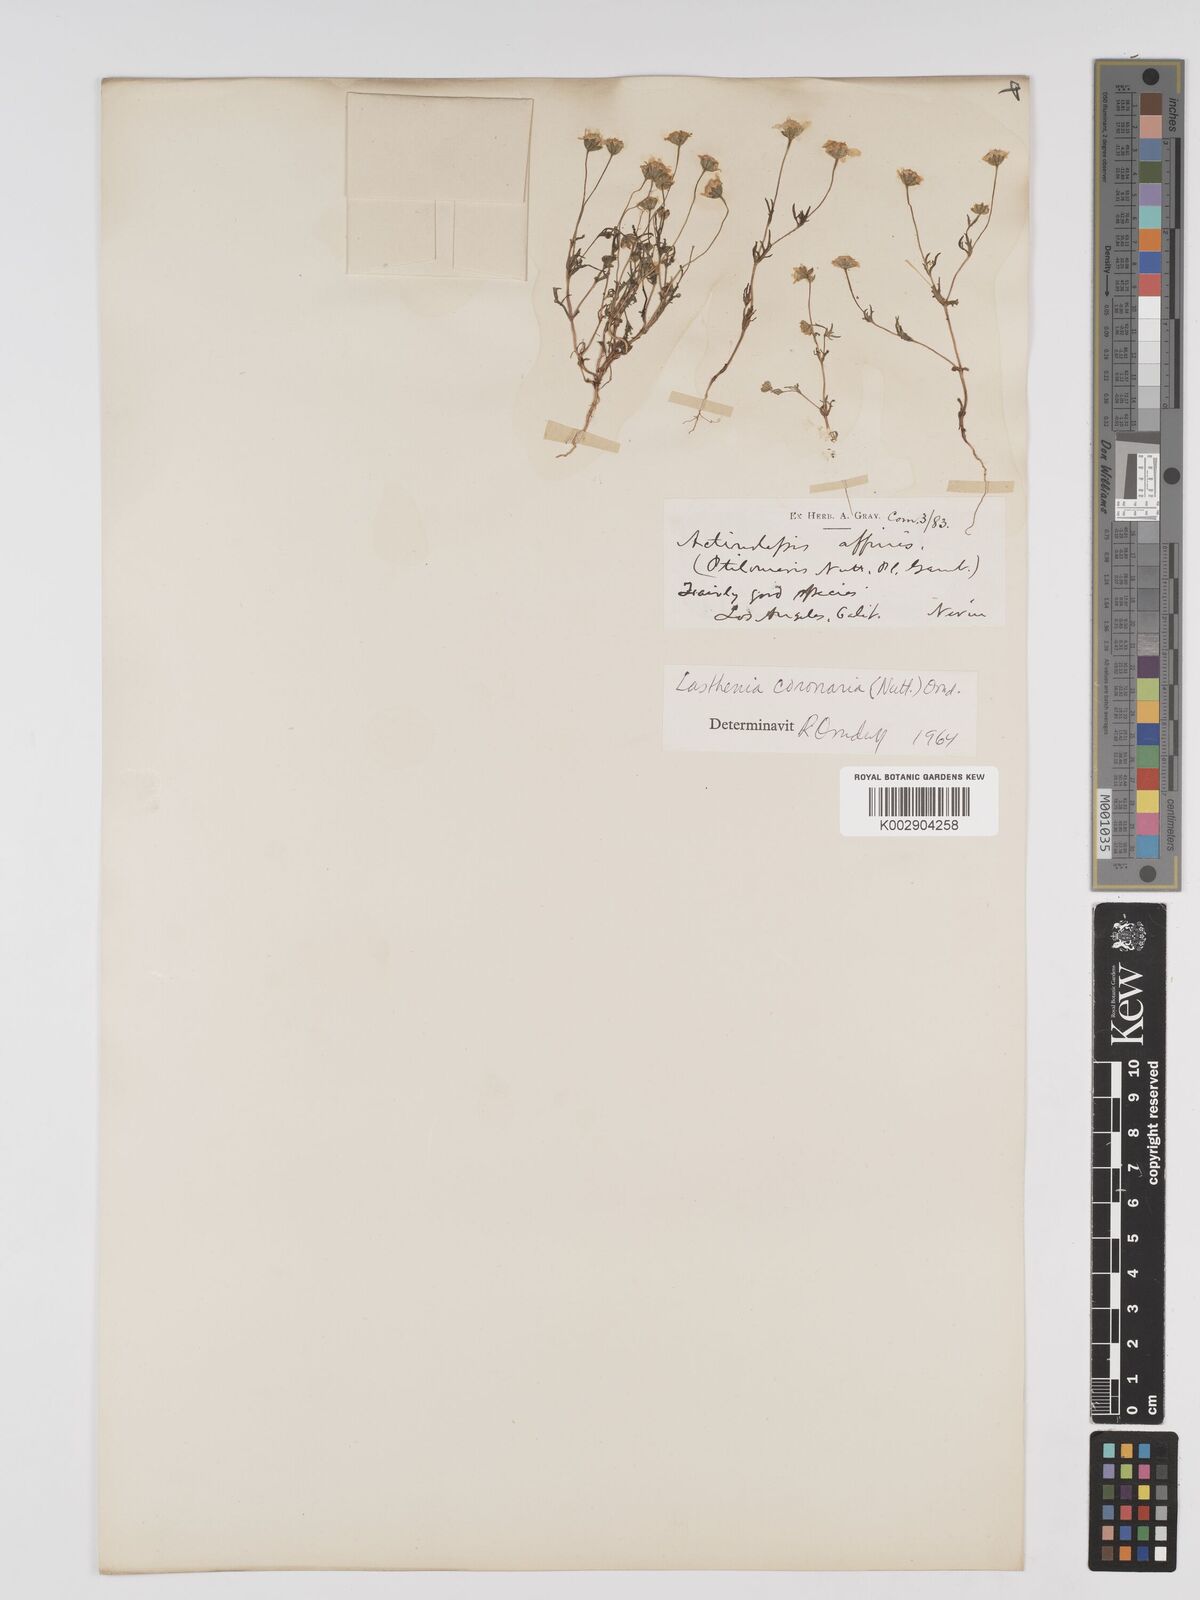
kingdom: Plantae
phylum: Tracheophyta
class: Magnoliopsida
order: Asterales
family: Asteraceae
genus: Lasthenia
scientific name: Lasthenia coronaria
